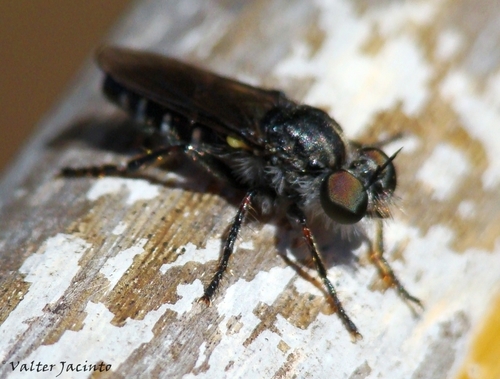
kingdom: Animalia
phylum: Arthropoda
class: Insecta
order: Diptera
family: Asilidae
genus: Cyrtopogon
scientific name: Cyrtopogon
